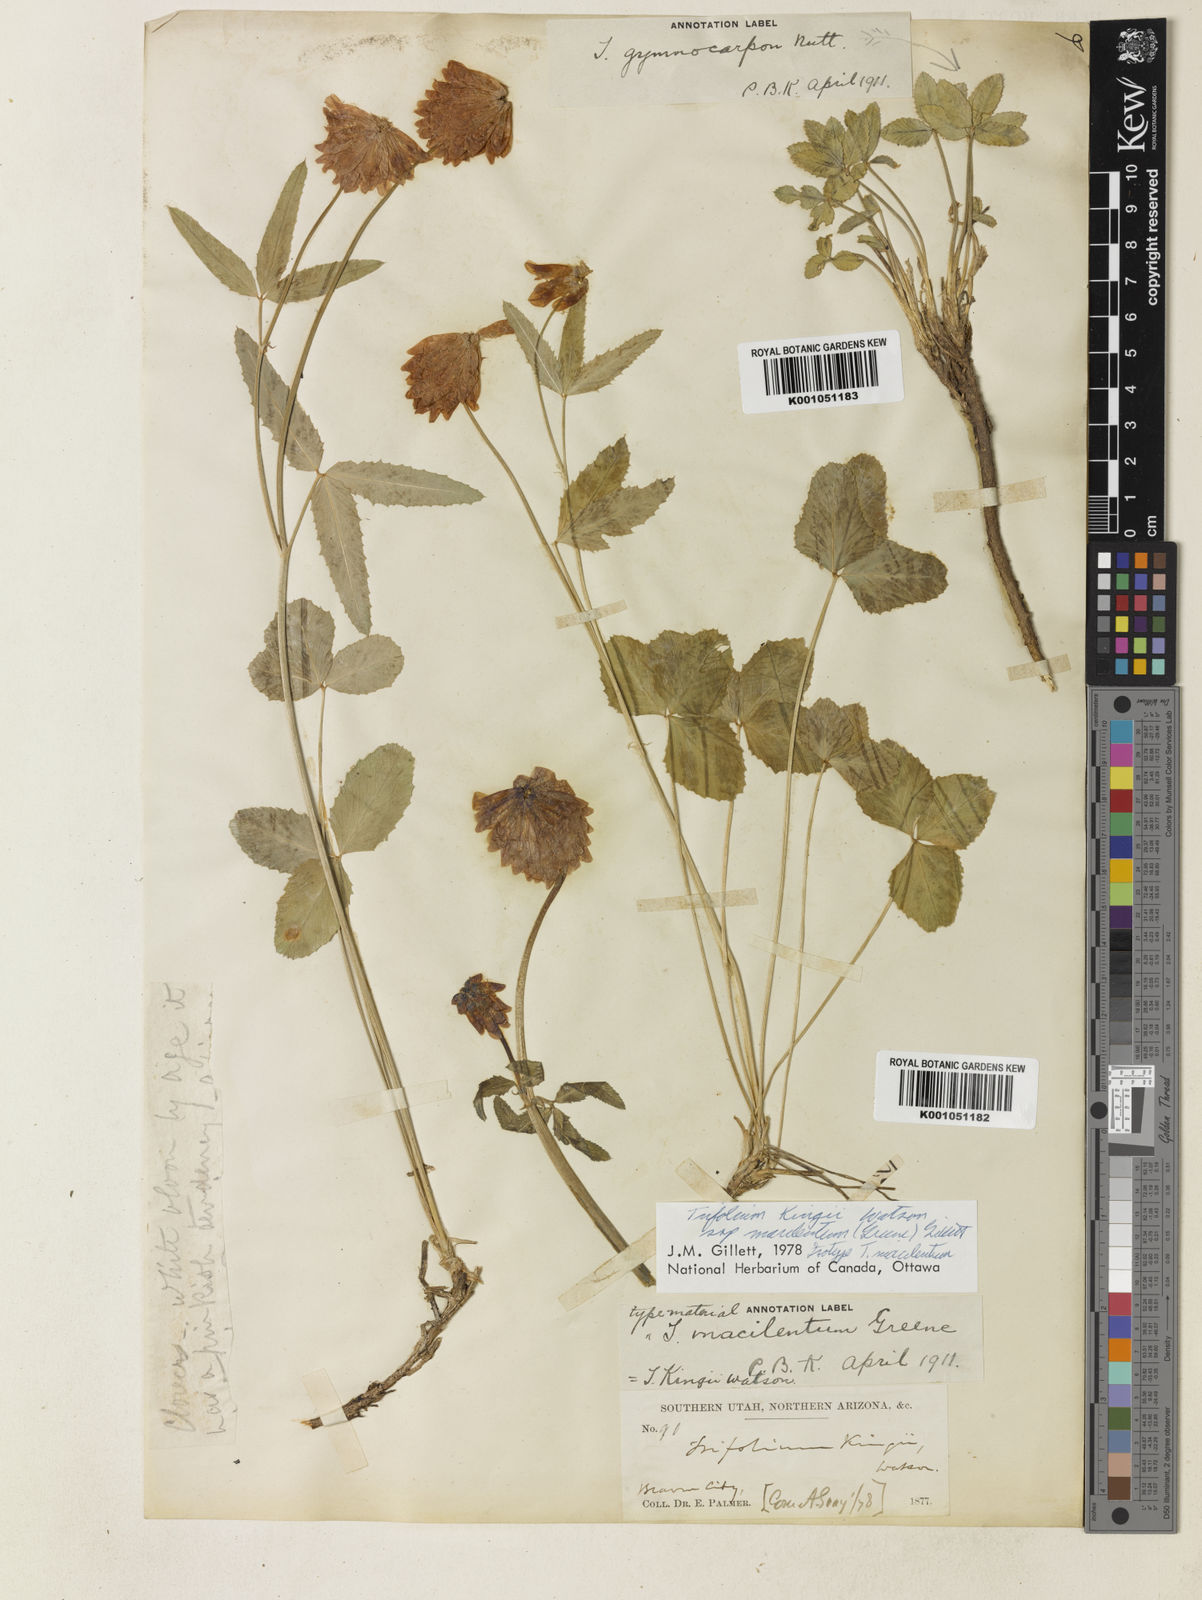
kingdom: Plantae
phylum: Tracheophyta
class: Magnoliopsida
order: Fabales
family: Fabaceae
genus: Trifolium
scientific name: Trifolium howellii
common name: Howell's clover
